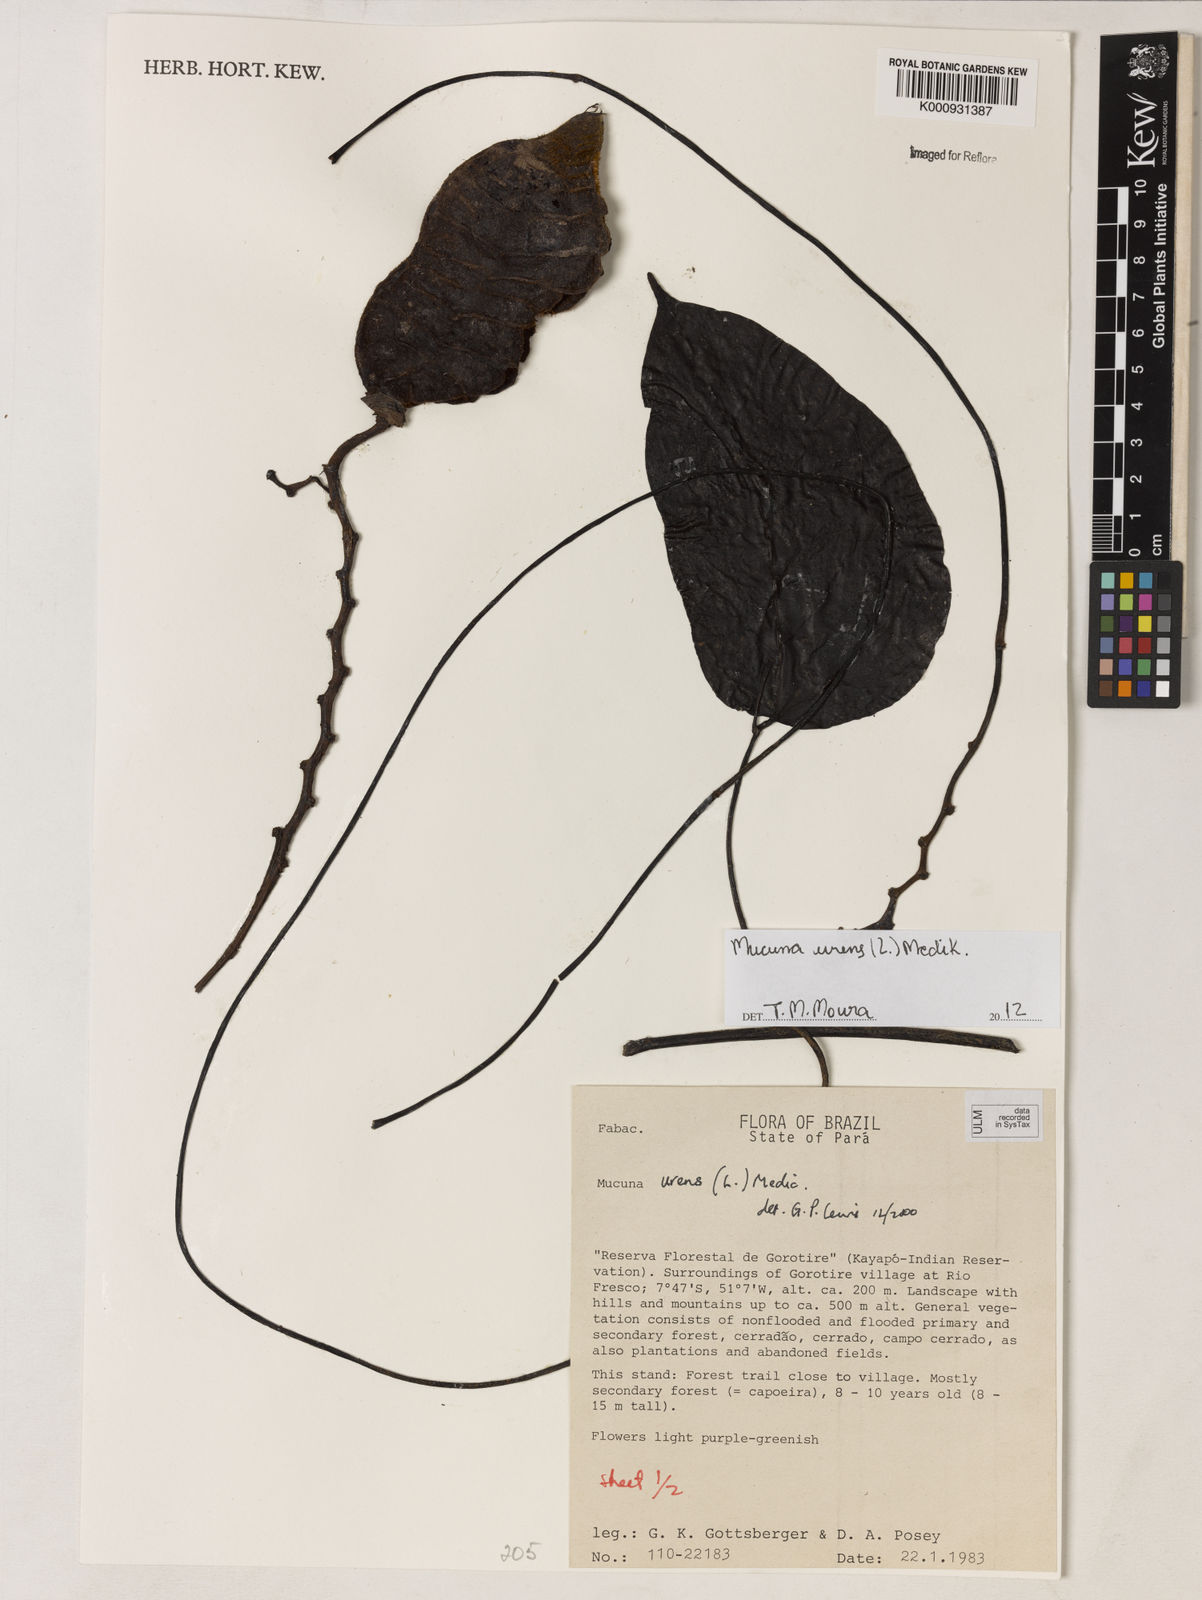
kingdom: Plantae
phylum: Tracheophyta
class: Magnoliopsida
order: Fabales
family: Fabaceae
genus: Mucuna
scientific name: Mucuna urens
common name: Red hamburger bean
